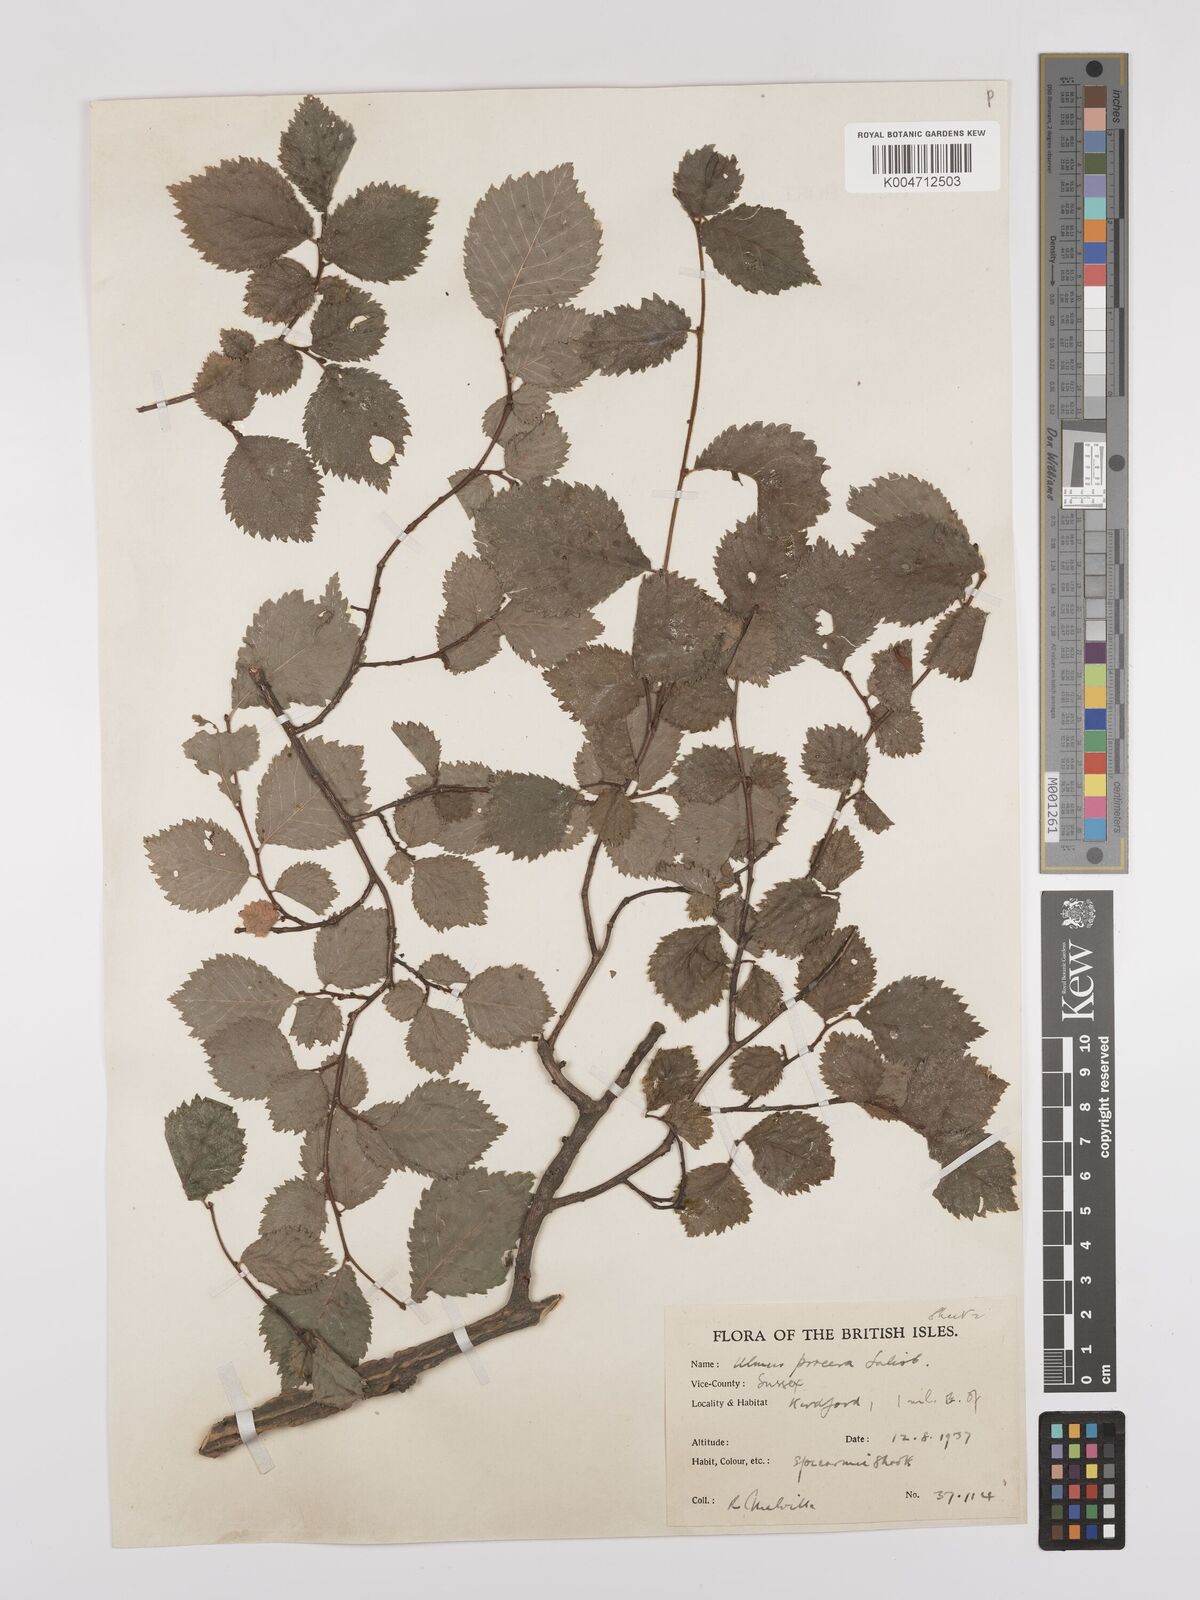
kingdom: Plantae
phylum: Tracheophyta
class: Magnoliopsida
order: Rosales
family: Ulmaceae
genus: Ulmus
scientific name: Ulmus minor
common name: Small-leaved elm
